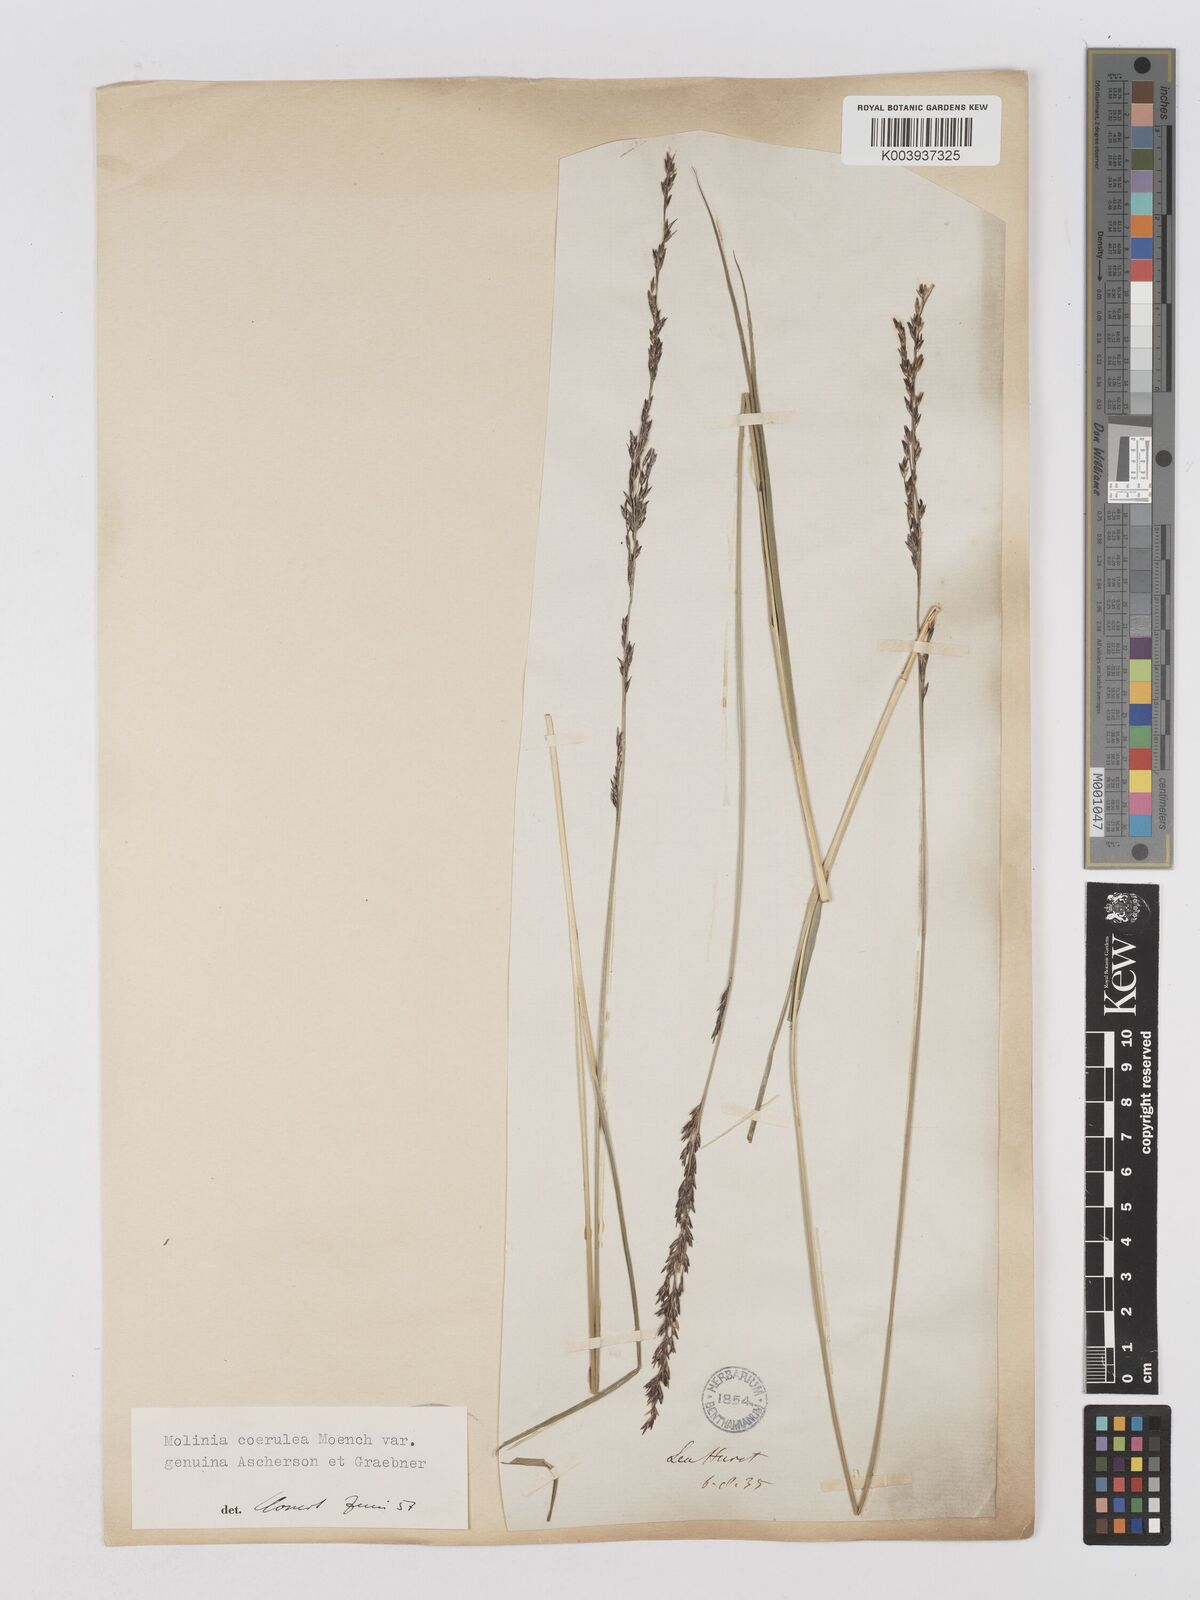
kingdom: Plantae
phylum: Tracheophyta
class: Liliopsida
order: Poales
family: Poaceae
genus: Molinia
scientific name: Molinia caerulea
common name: Purple moor-grass
